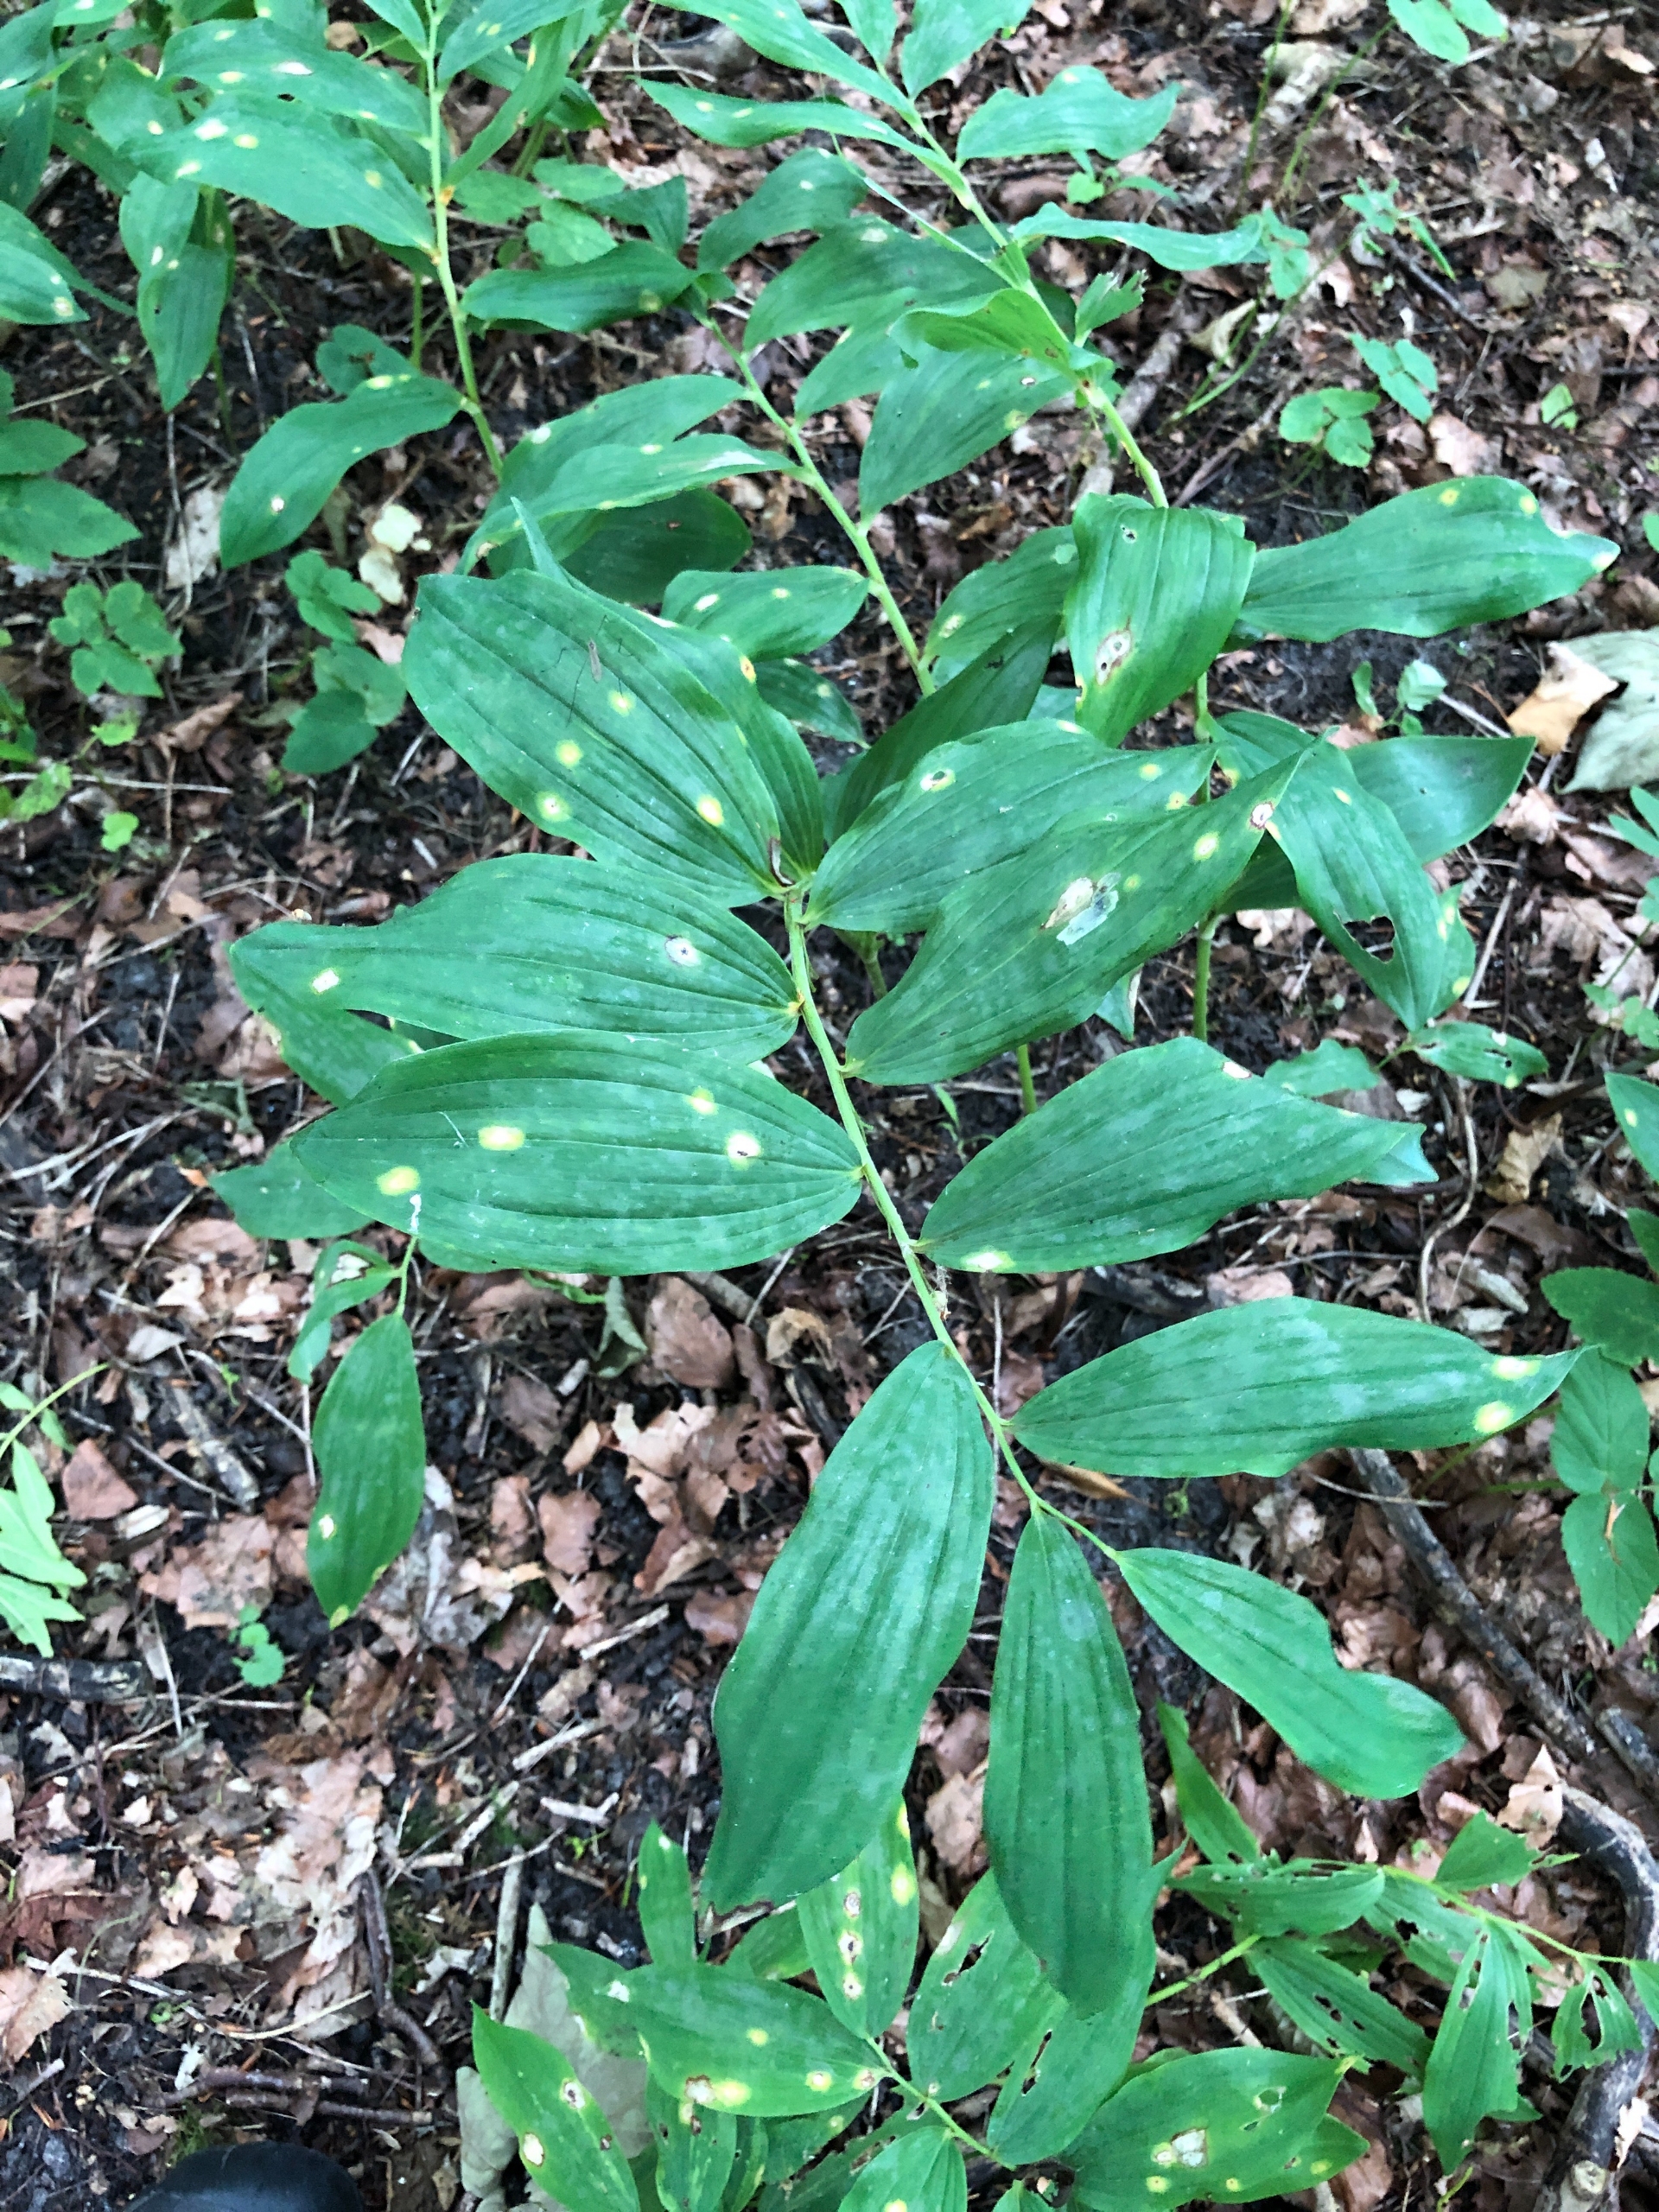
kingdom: Plantae
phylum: Tracheophyta
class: Liliopsida
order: Asparagales
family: Asparagaceae
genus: Polygonatum
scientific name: Polygonatum multiflorum
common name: Stor konval
